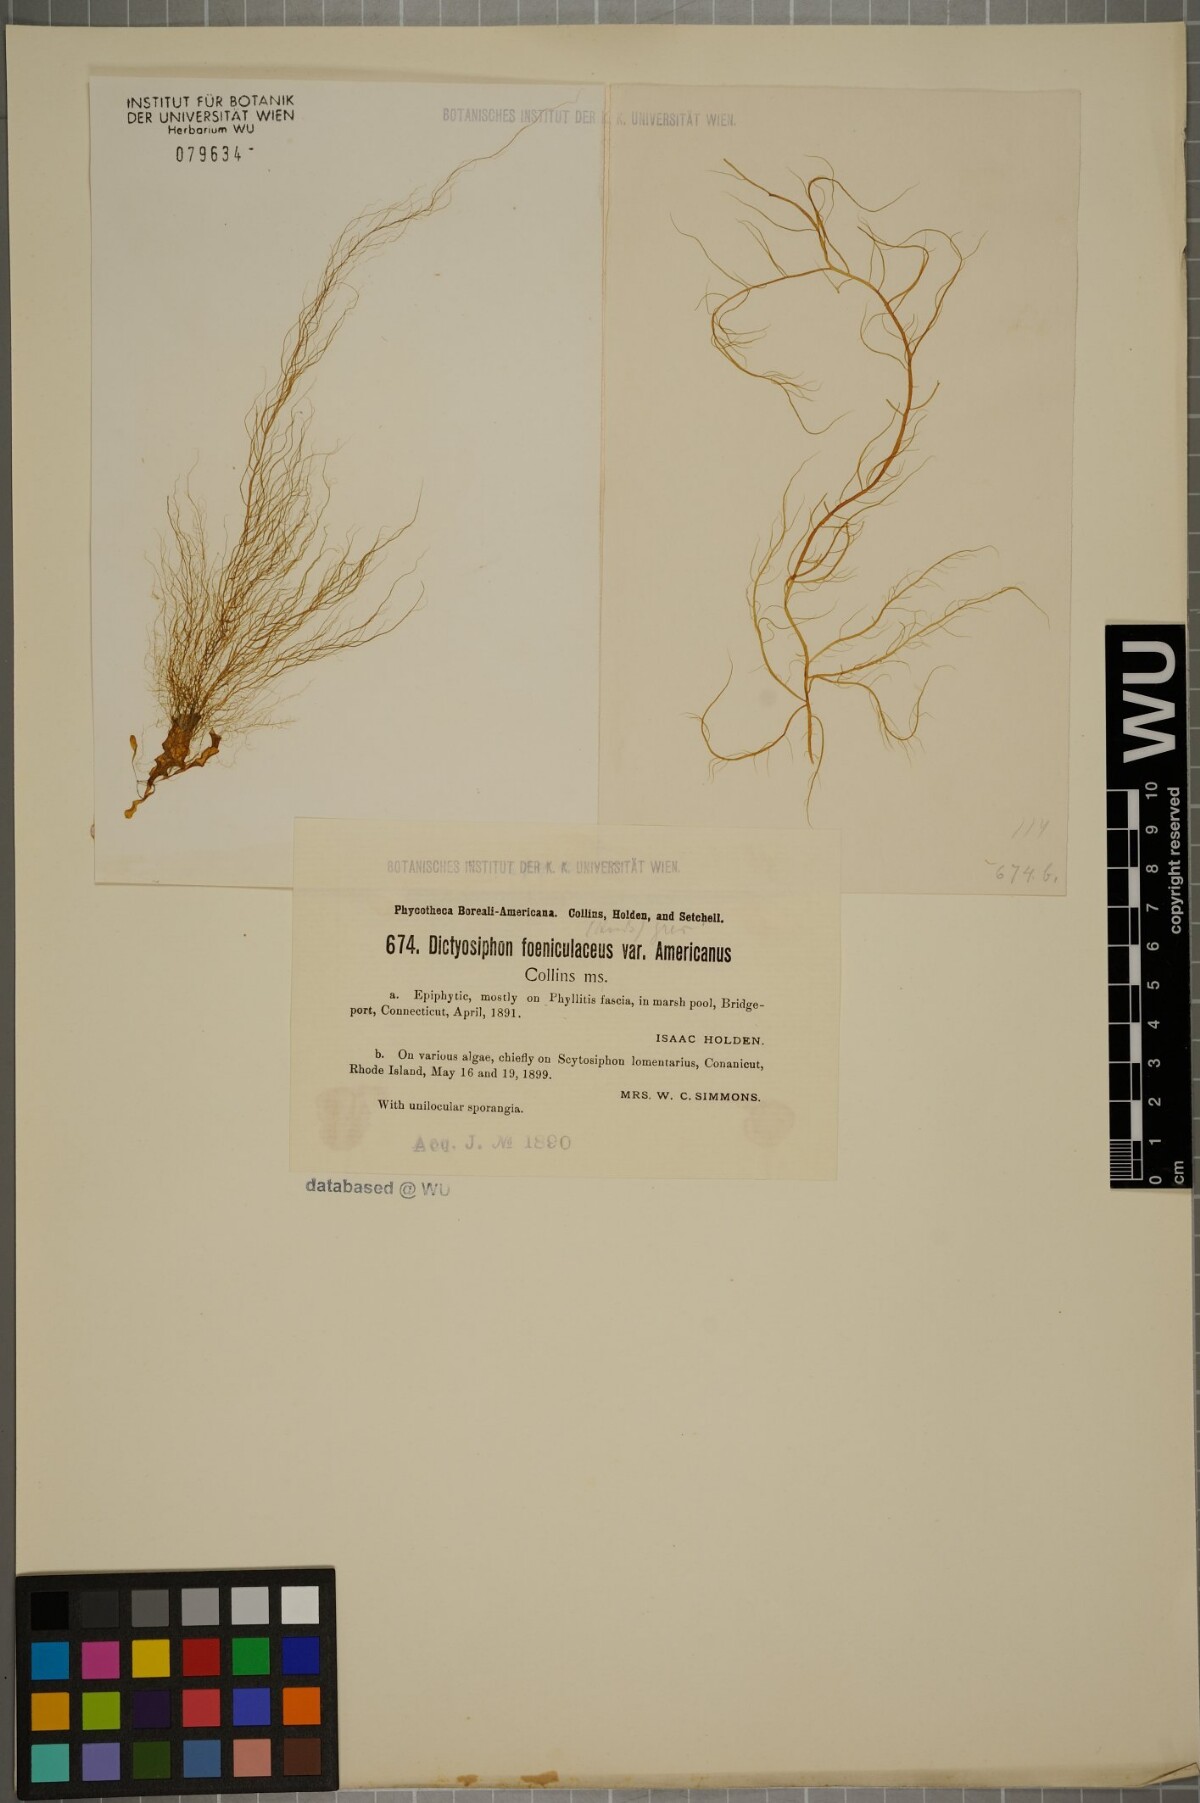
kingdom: Chromista
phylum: Ochrophyta
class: Phaeophyceae
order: Ectocarpales
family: Chordariaceae
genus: Dictyosiphon
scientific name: Dictyosiphon foeniculaceus
